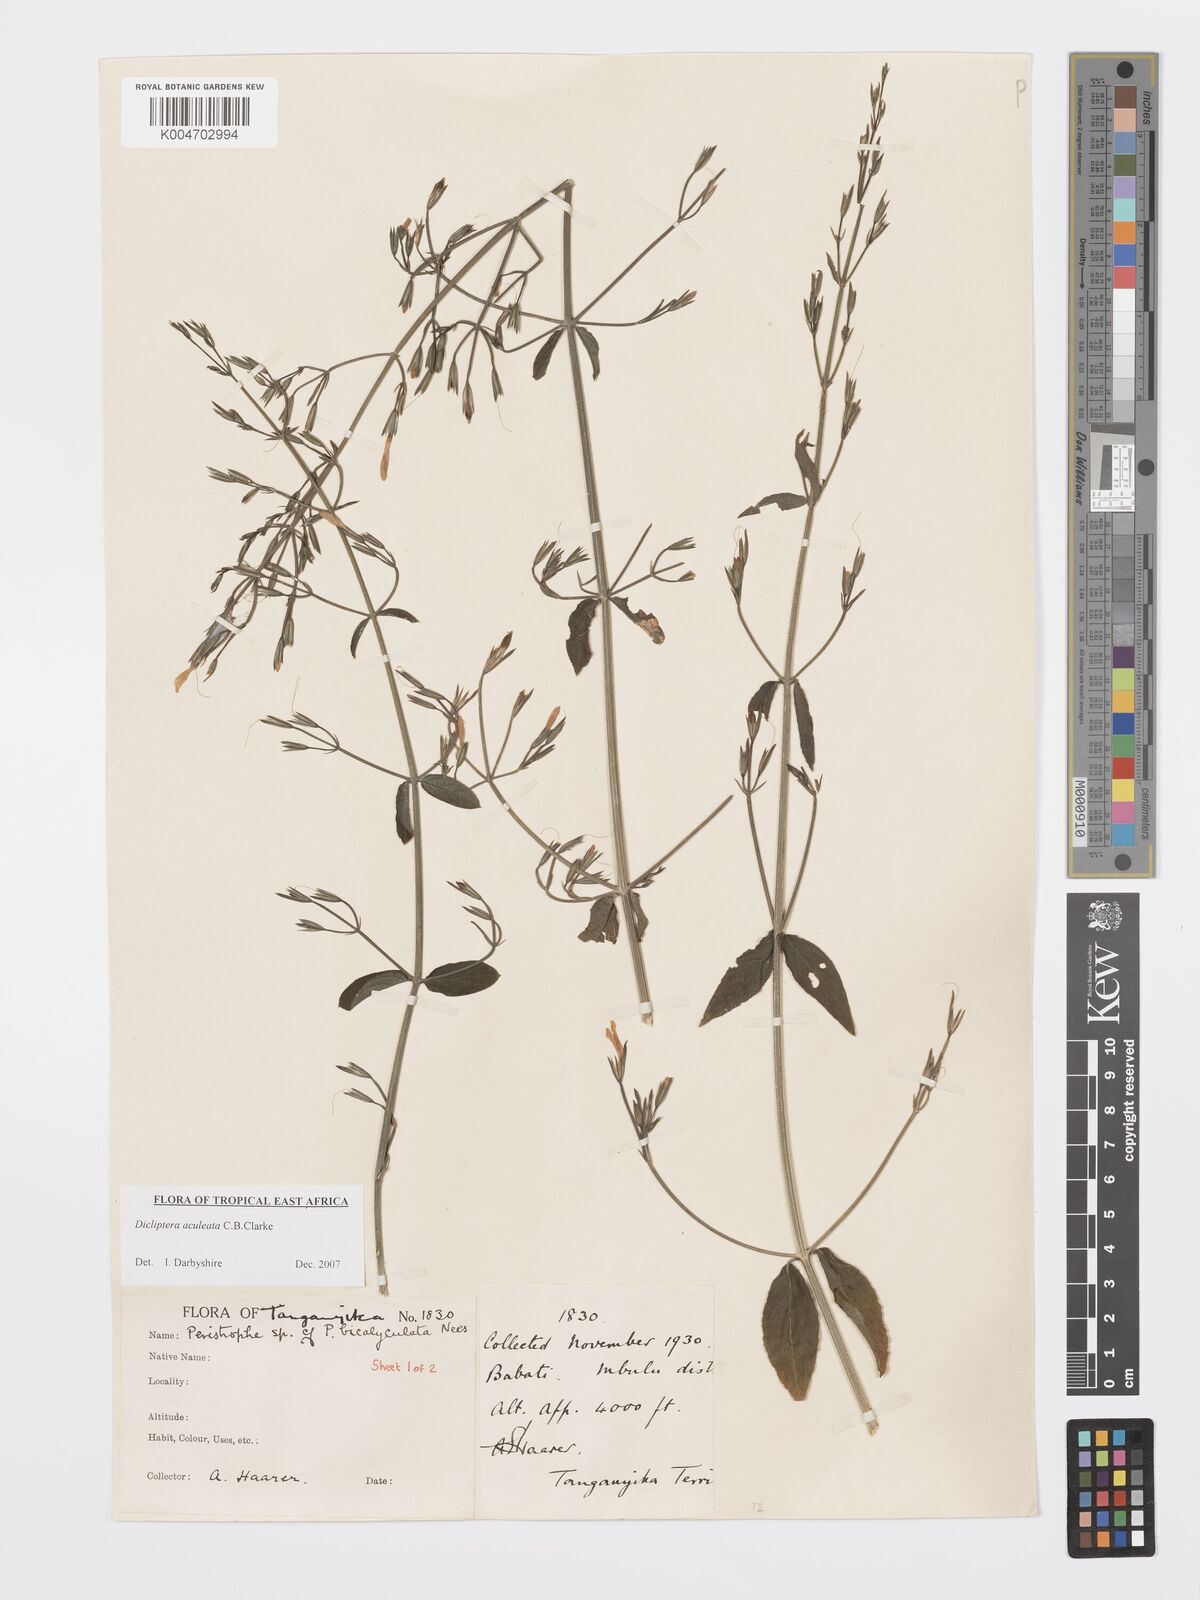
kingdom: Plantae
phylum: Tracheophyta
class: Magnoliopsida
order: Lamiales
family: Acanthaceae
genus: Dicliptera
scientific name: Dicliptera hensii
